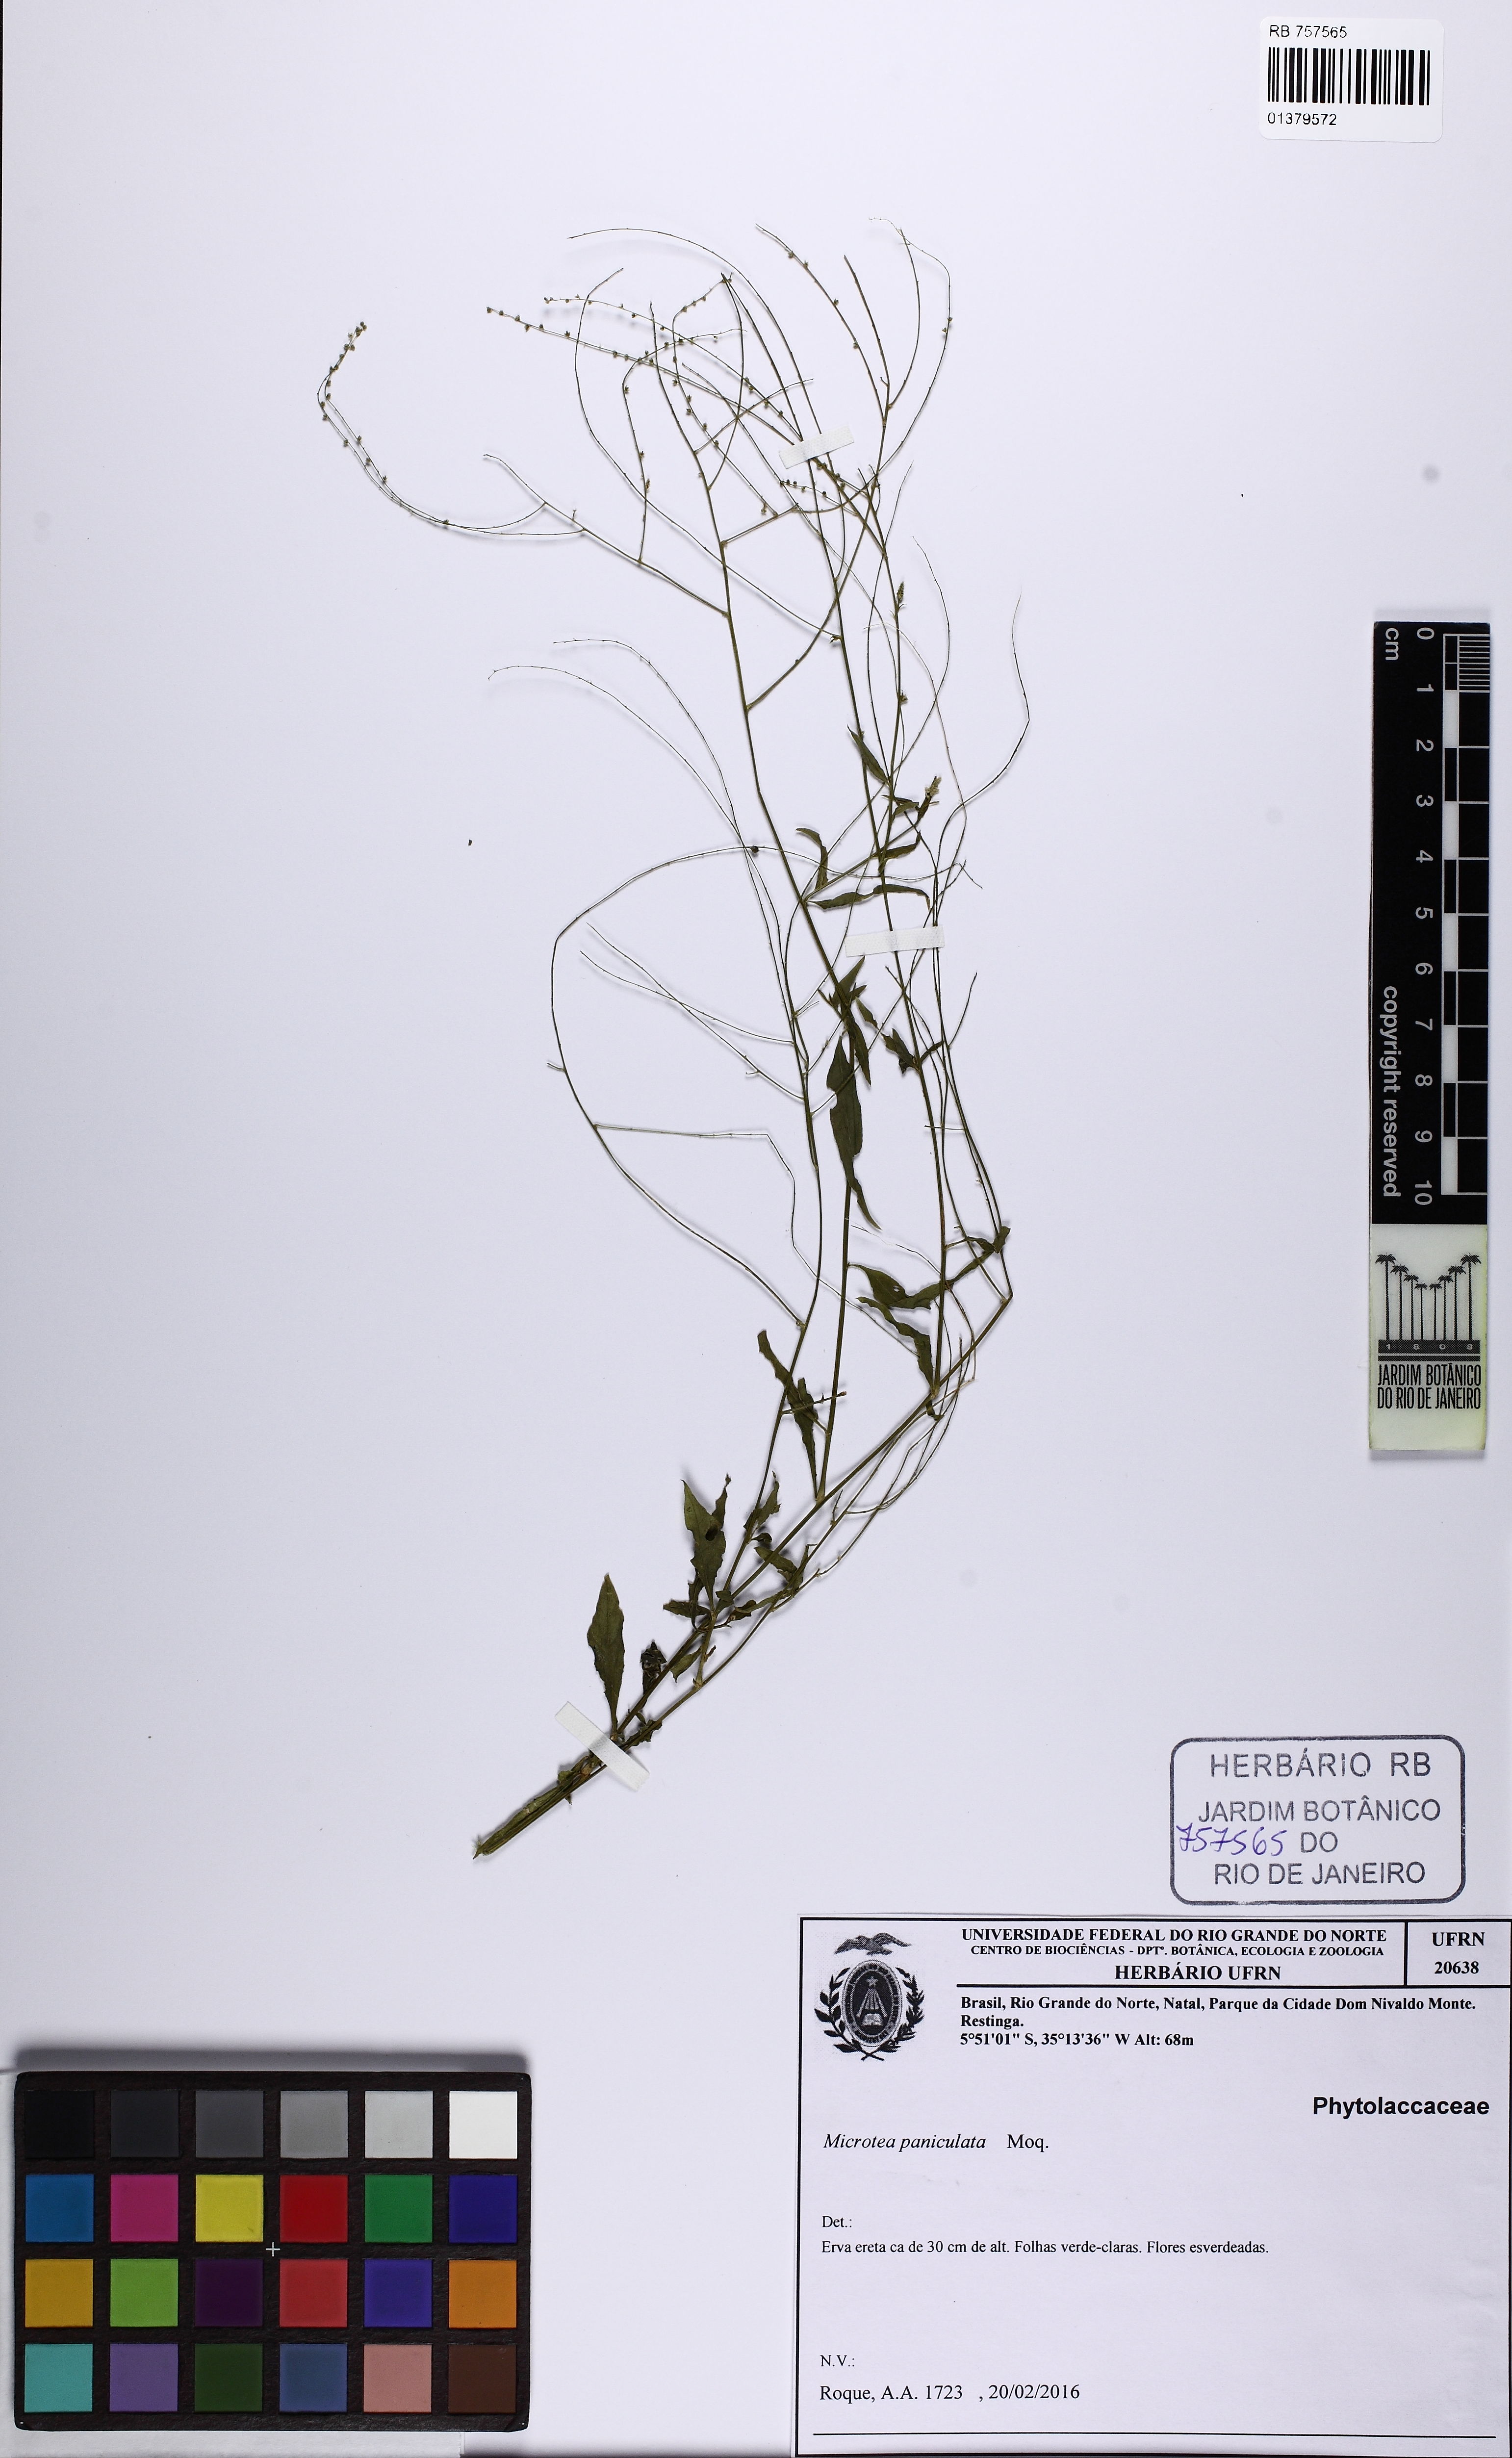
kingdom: Plantae
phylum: Tracheophyta
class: Magnoliopsida
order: Caryophyllales
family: Microteaceae
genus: Microtea
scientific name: Microtea paniculata
